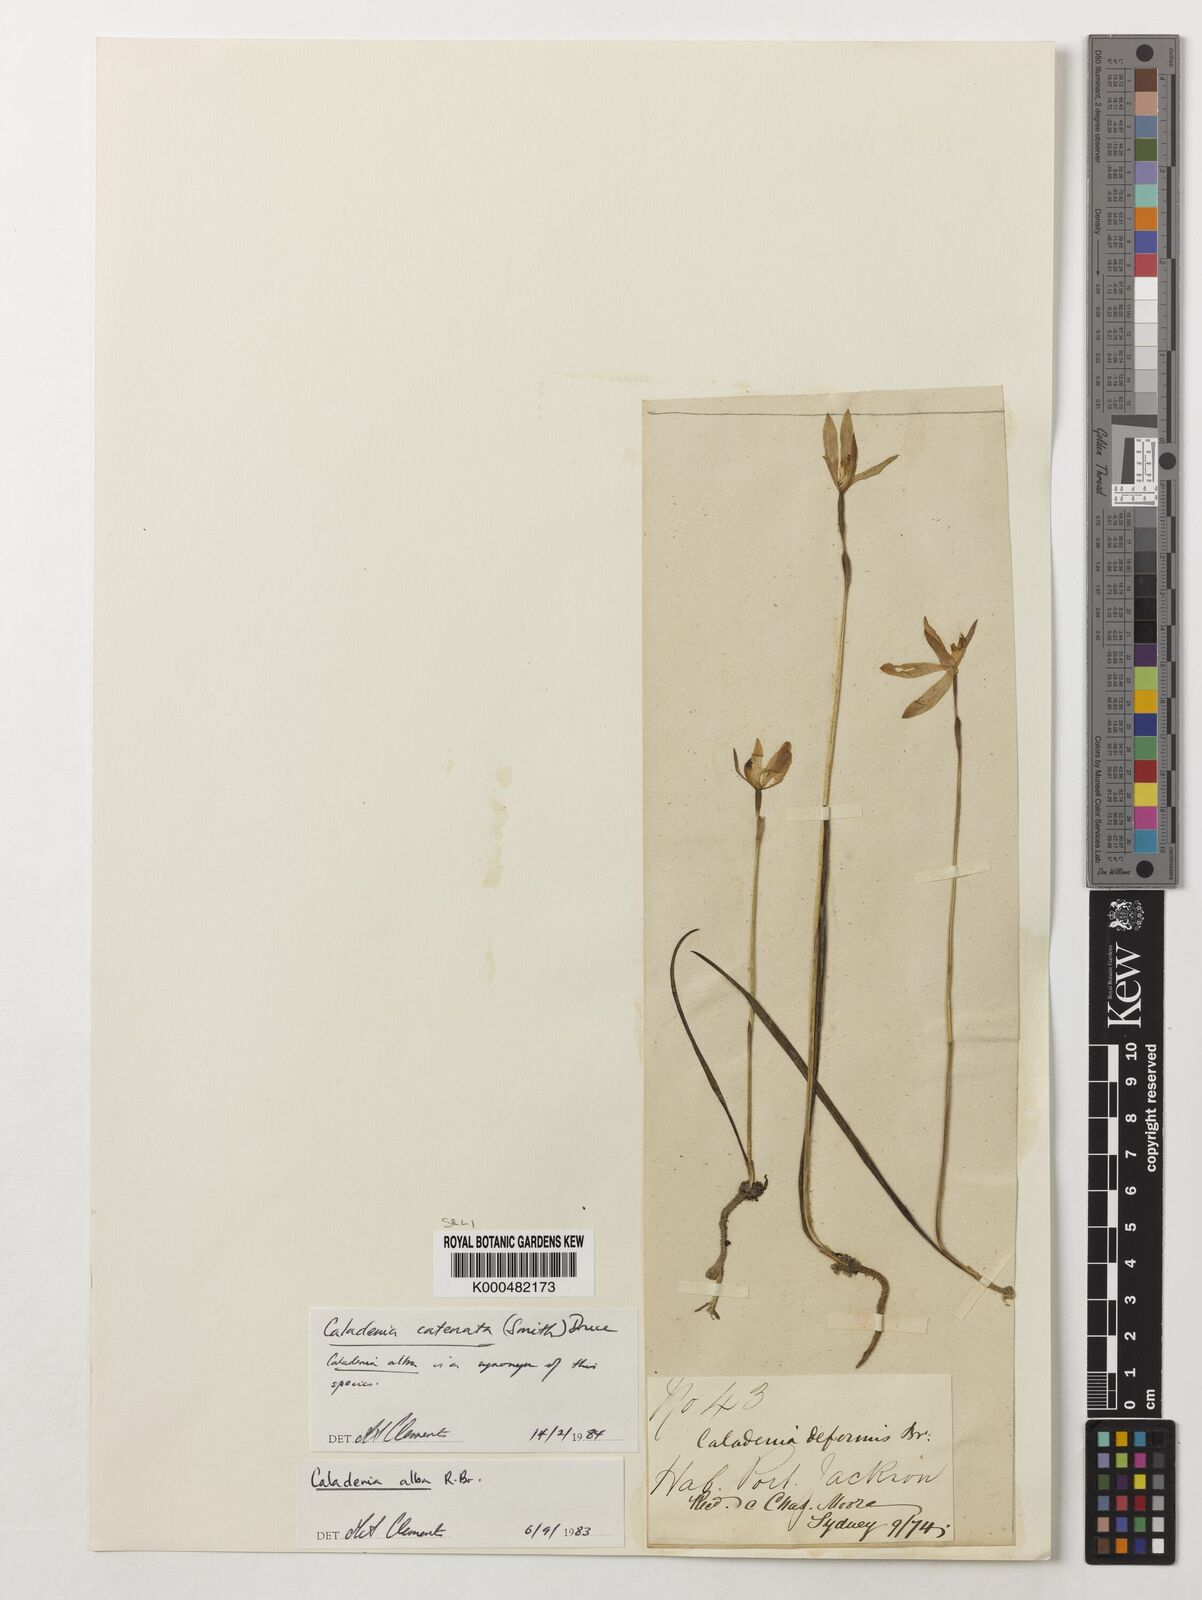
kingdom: Plantae
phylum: Tracheophyta
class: Liliopsida
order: Asparagales
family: Orchidaceae
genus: Caladenia
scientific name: Caladenia
